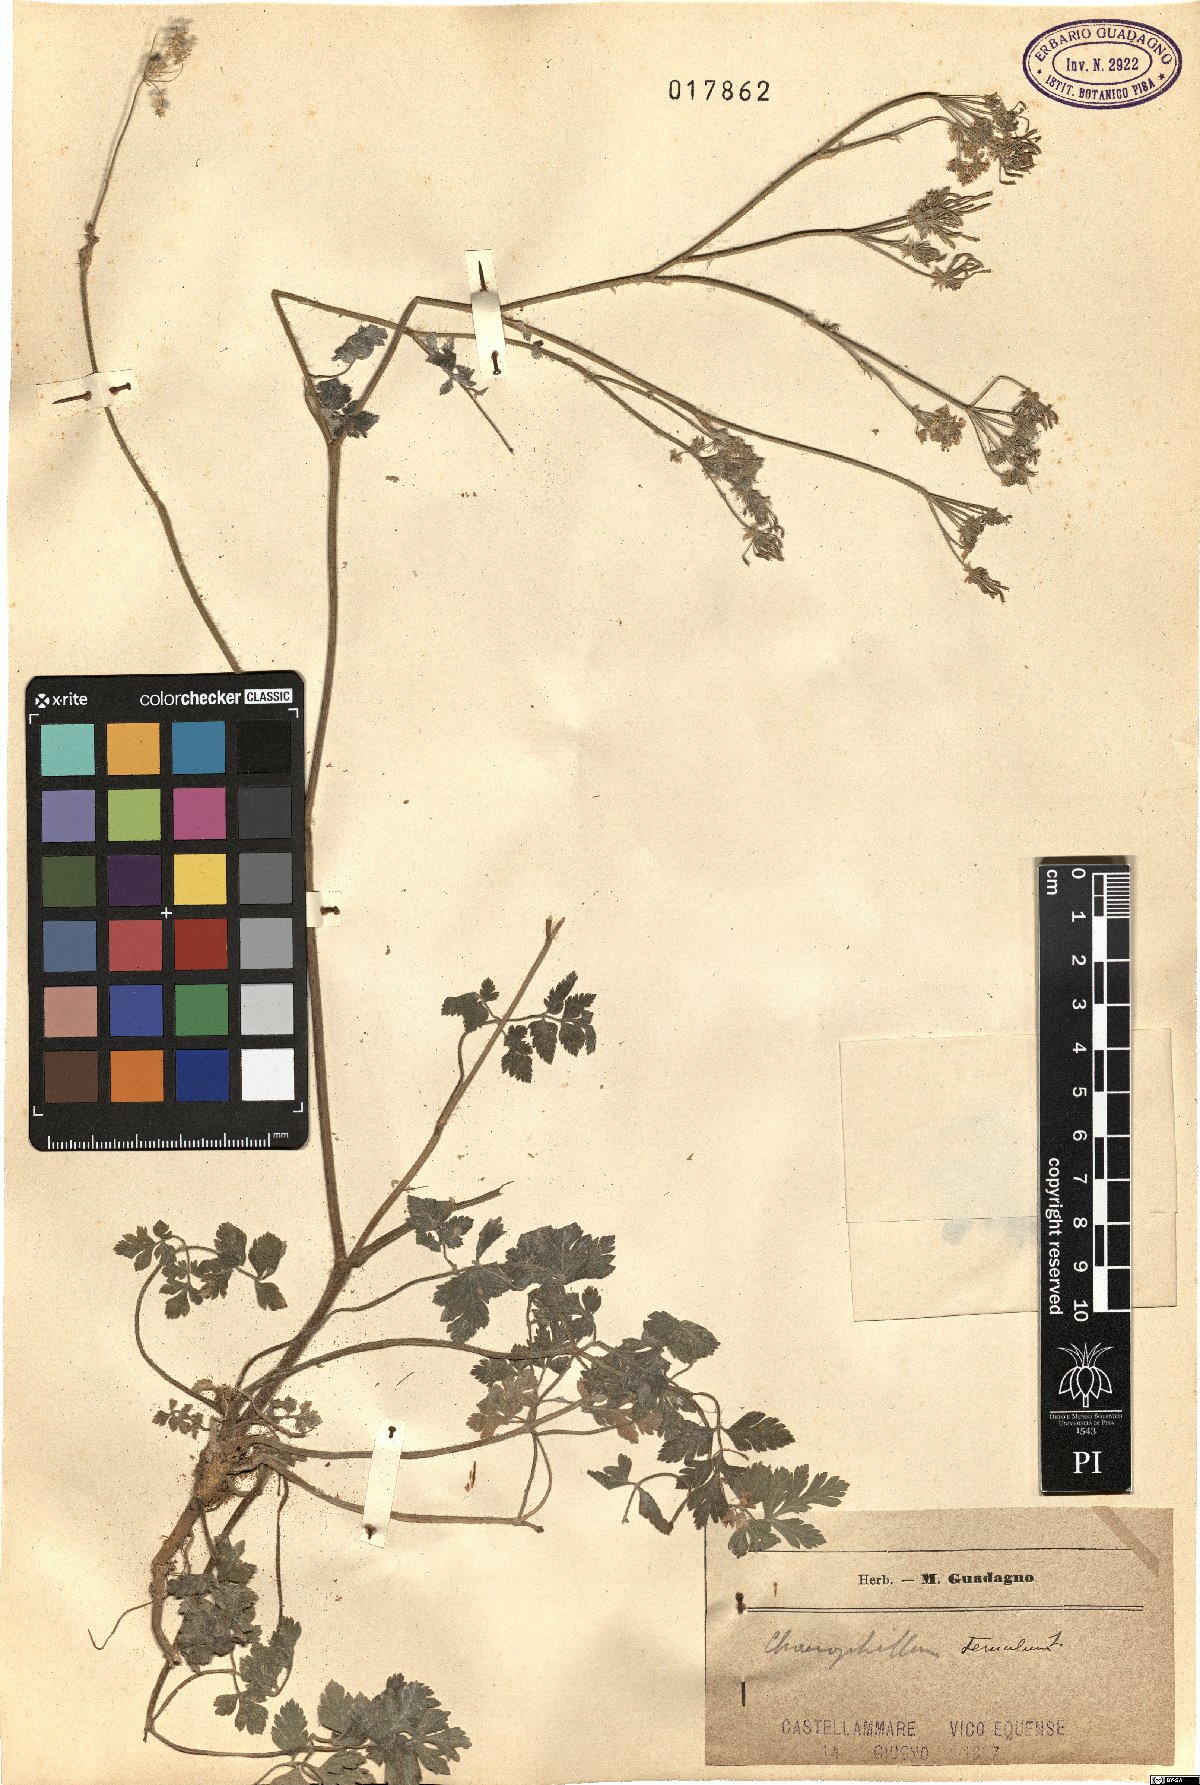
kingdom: Plantae
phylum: Tracheophyta
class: Magnoliopsida
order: Apiales
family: Apiaceae
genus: Chaerophyllum
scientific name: Chaerophyllum temulum
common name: Rough chervil
